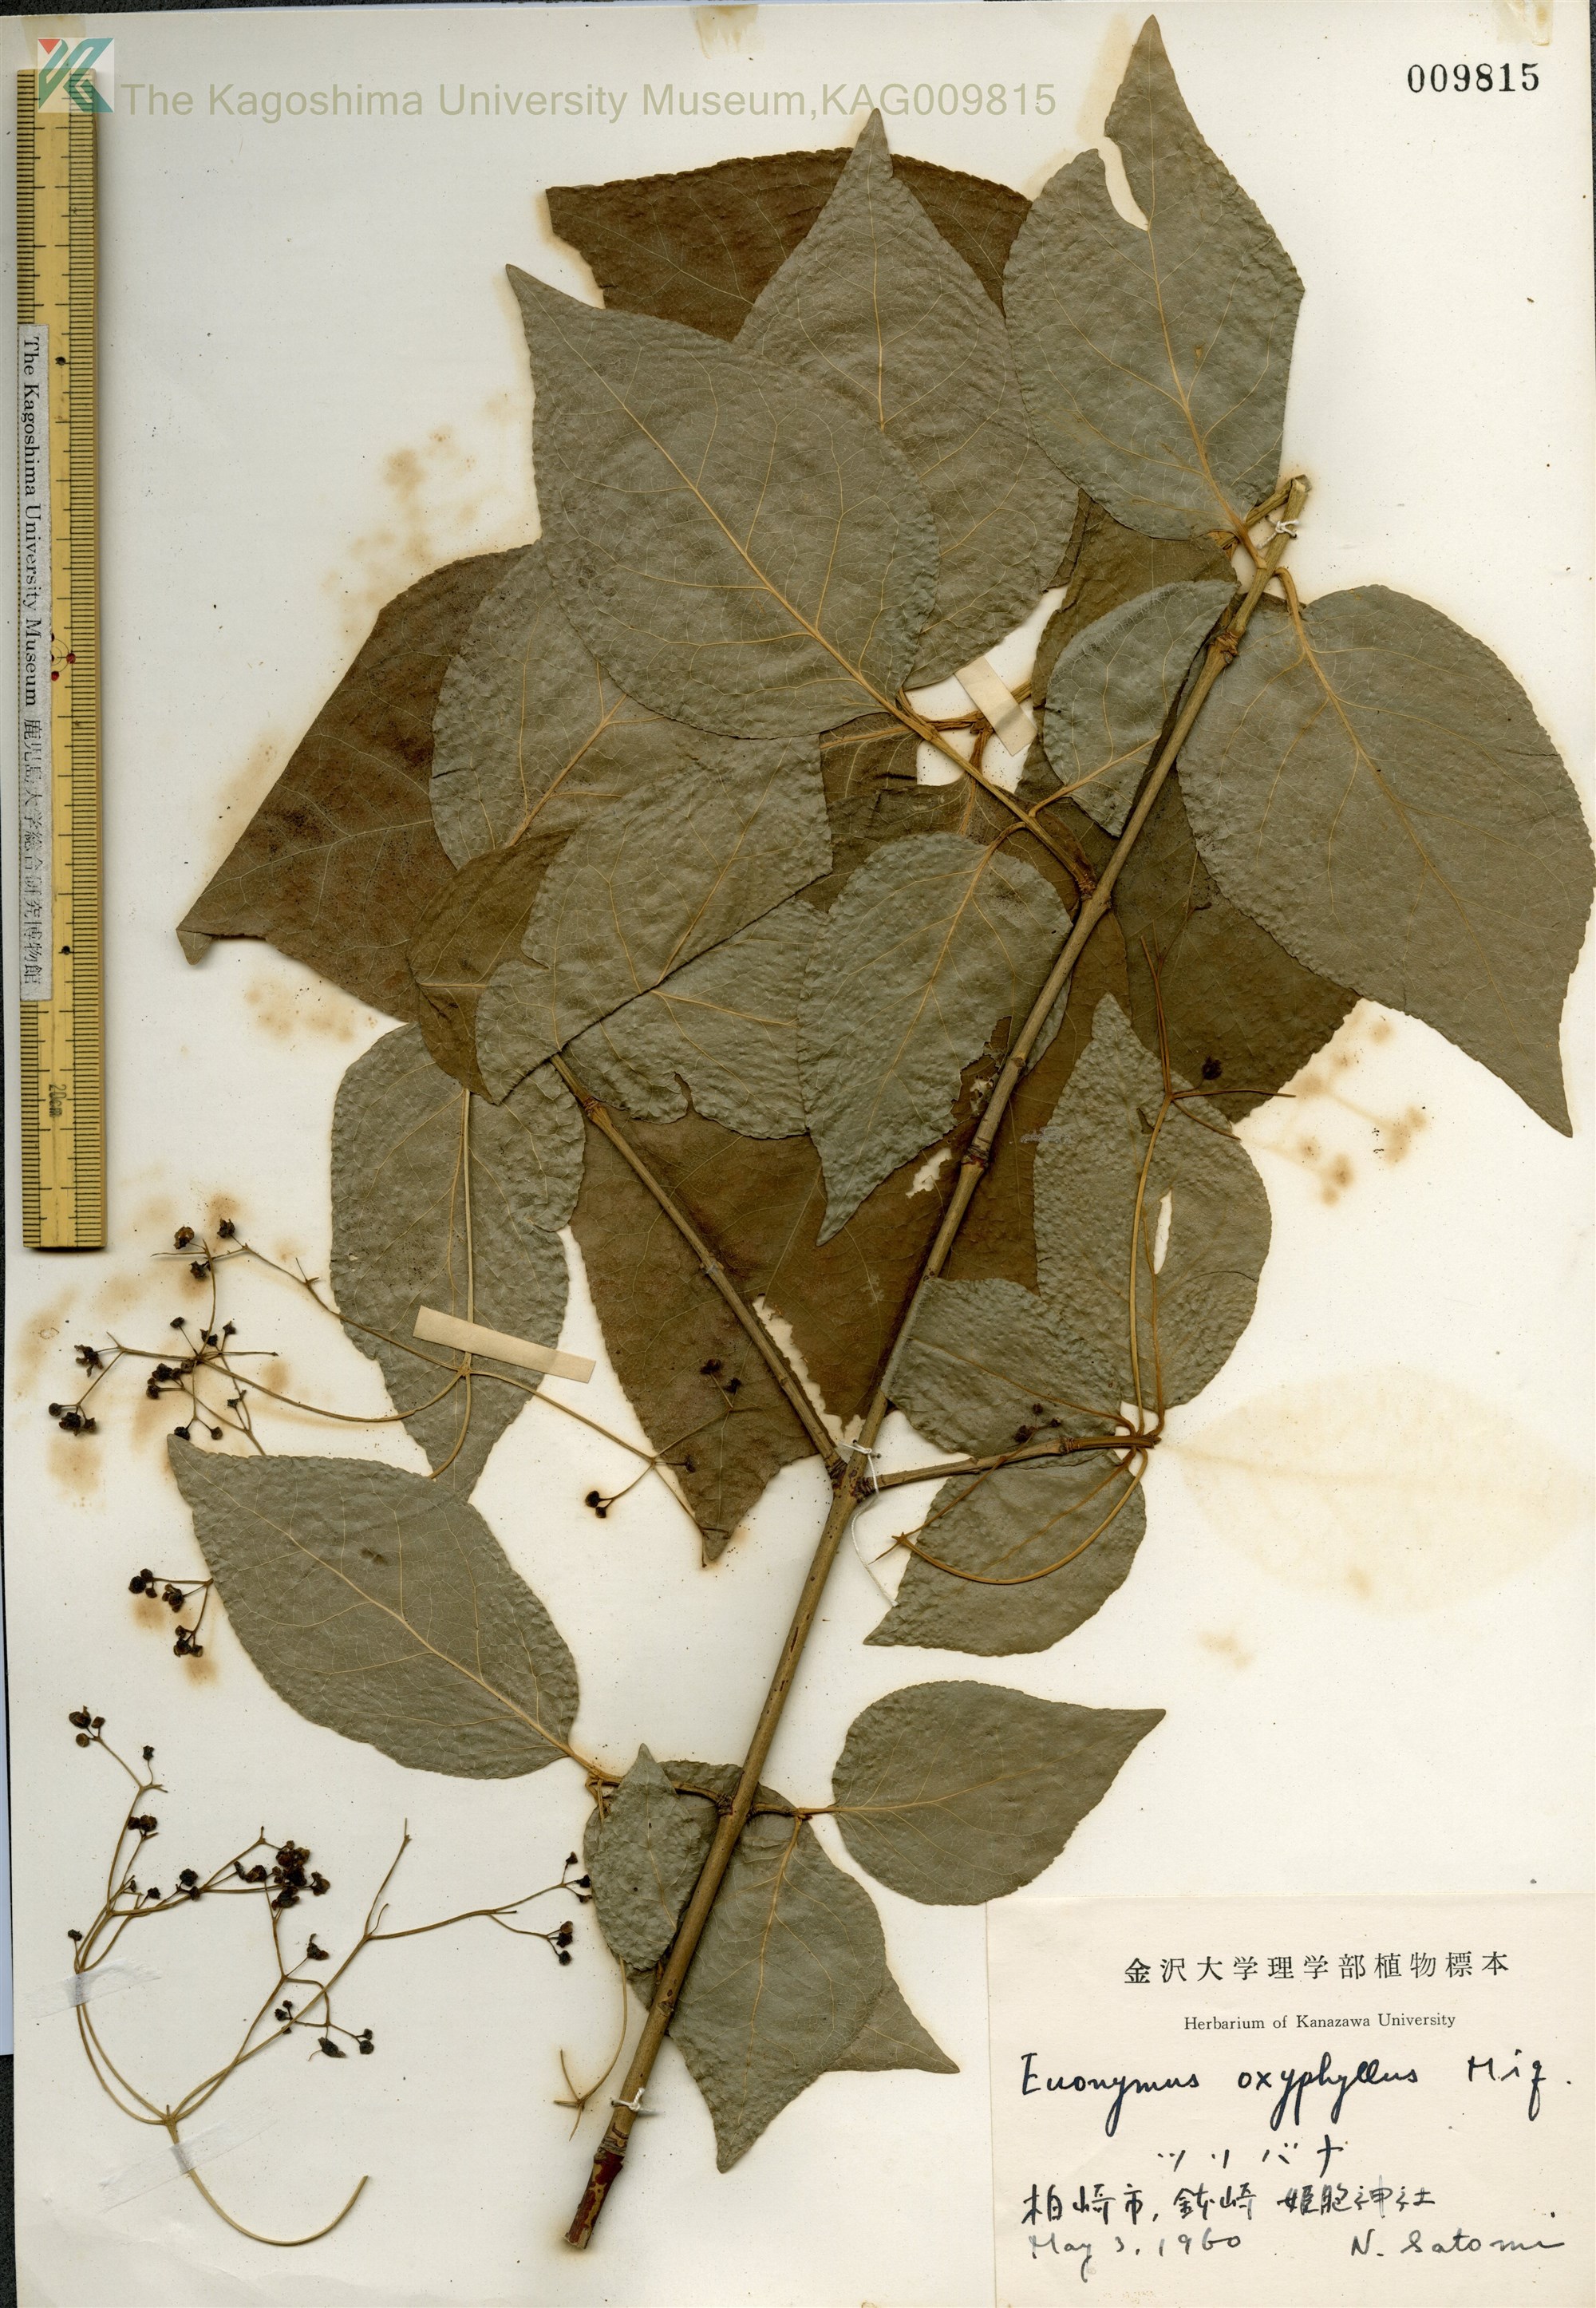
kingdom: Plantae
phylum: Tracheophyta
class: Magnoliopsida
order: Celastrales
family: Celastraceae
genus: Euonymus
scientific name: Euonymus oxyphyllus
